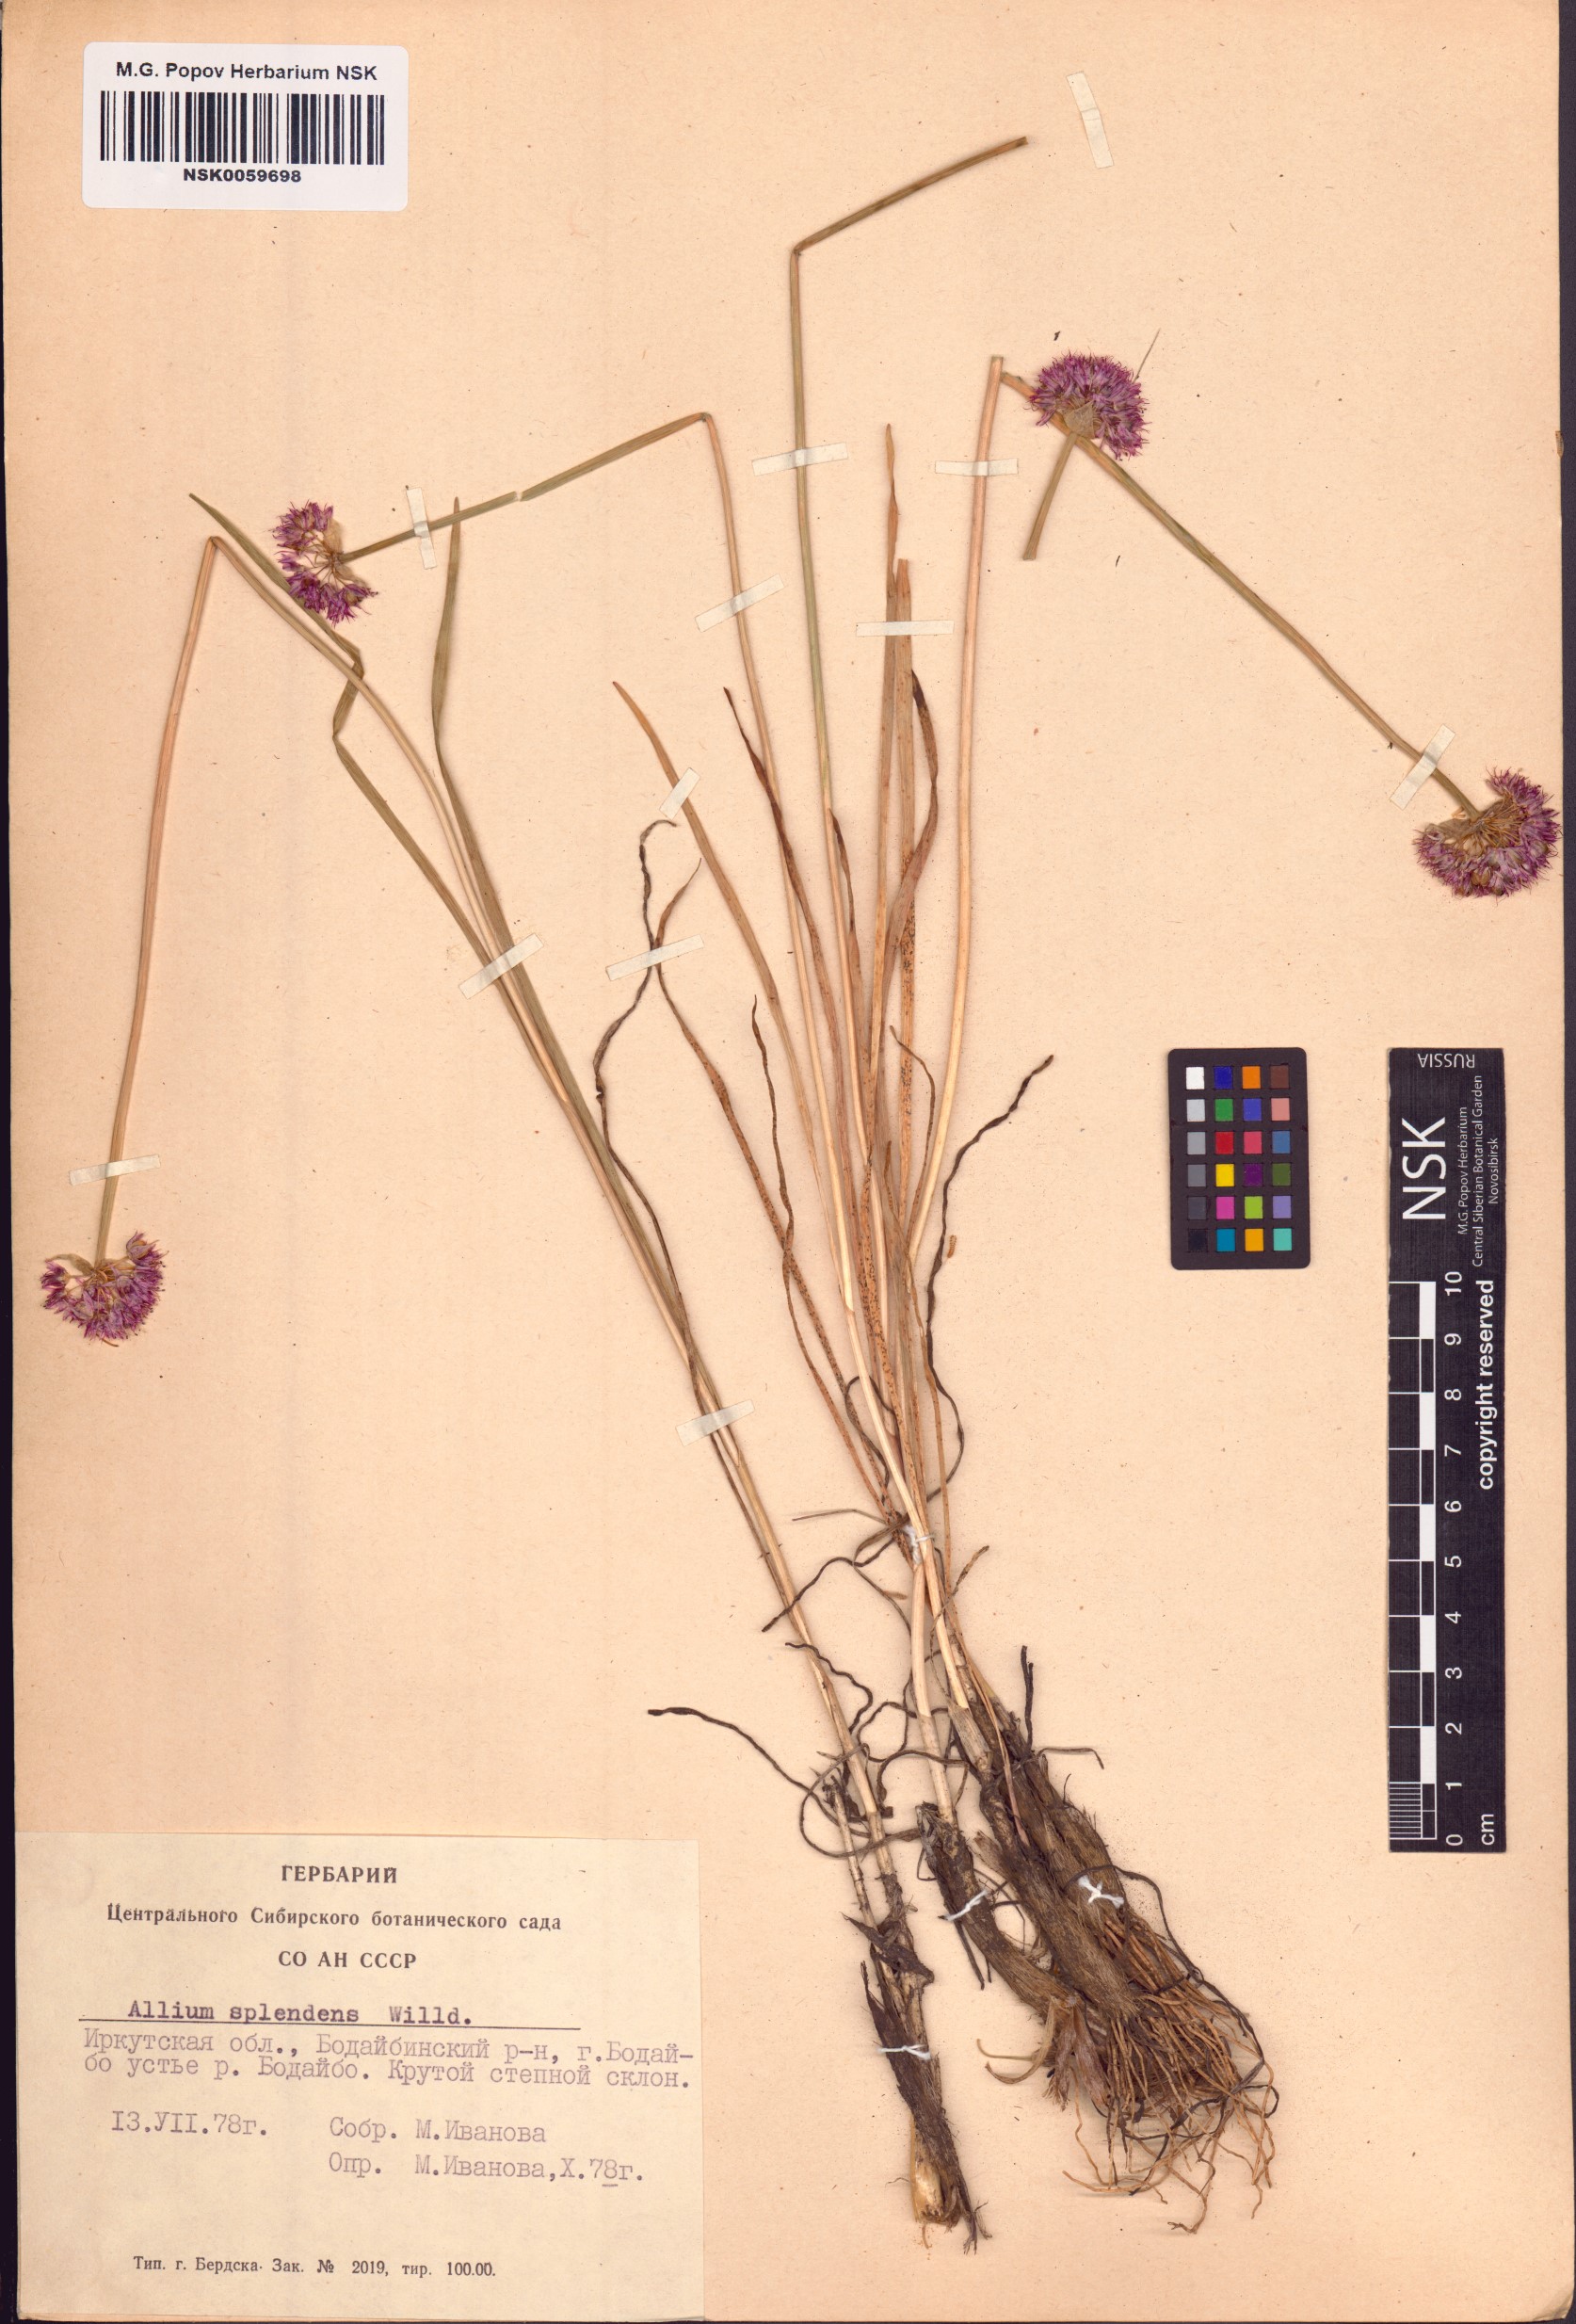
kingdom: Plantae
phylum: Tracheophyta
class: Liliopsida
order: Asparagales
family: Amaryllidaceae
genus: Allium
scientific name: Allium splendens
